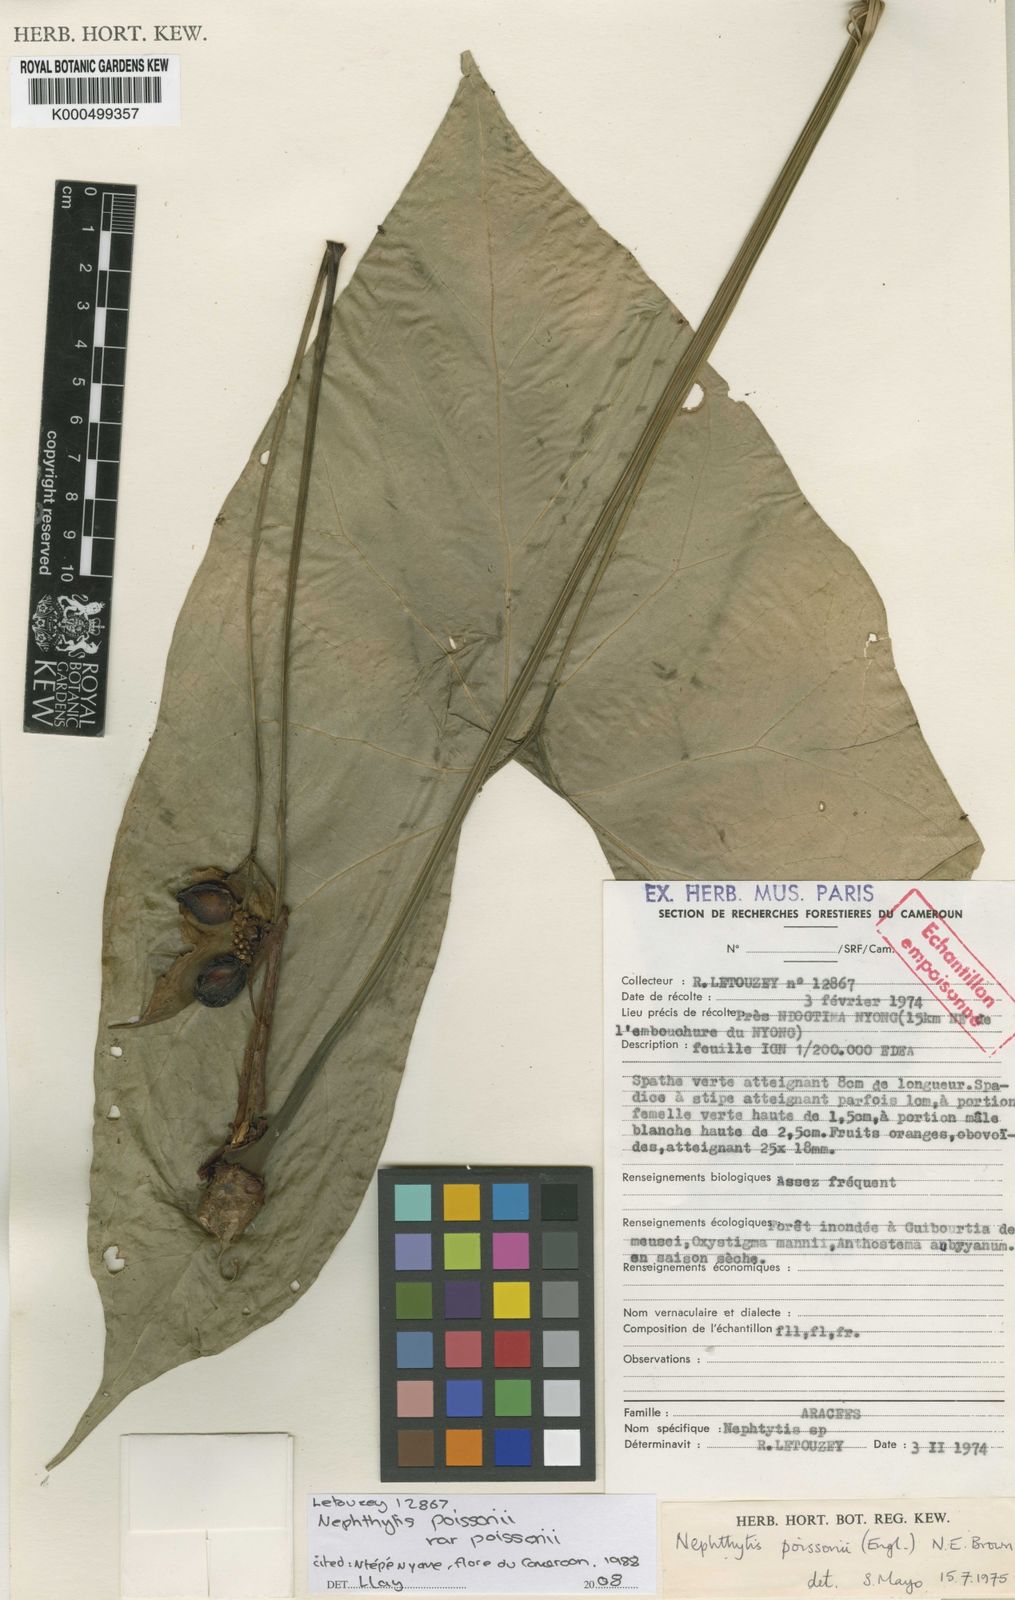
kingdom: Plantae
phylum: Tracheophyta
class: Liliopsida
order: Alismatales
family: Araceae
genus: Nephthytis
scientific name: Nephthytis poissonii
